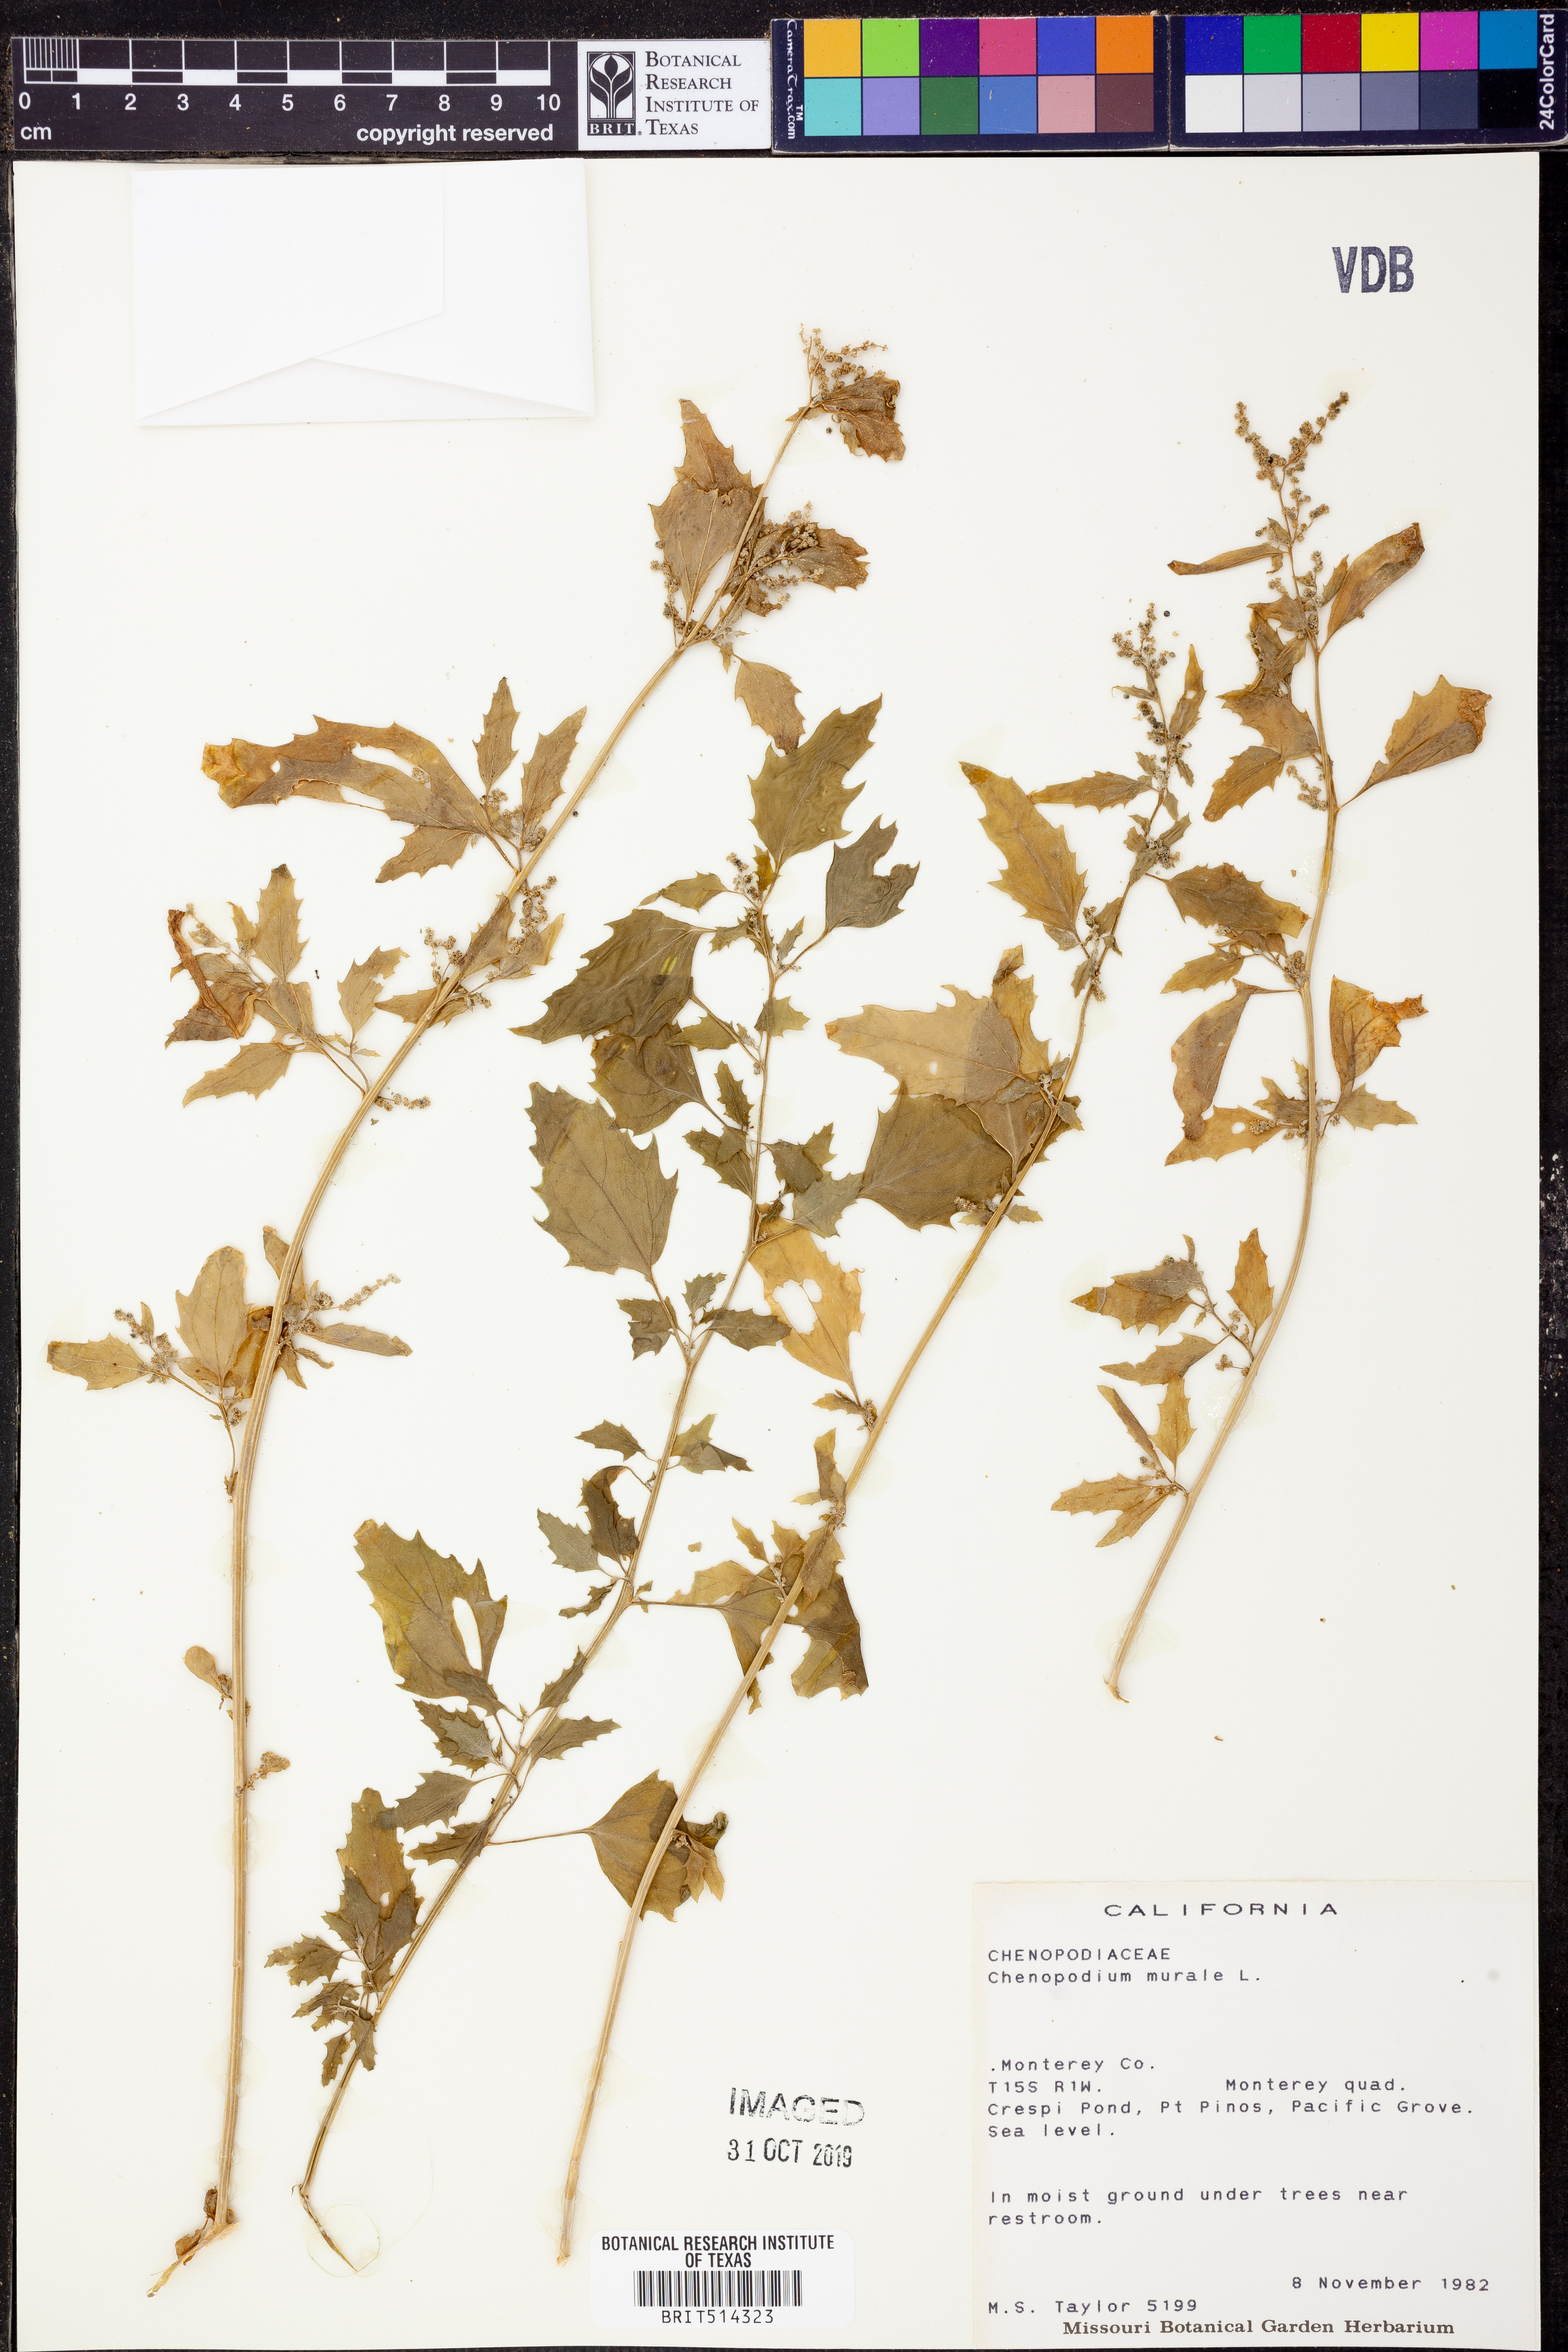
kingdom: Plantae
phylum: Tracheophyta
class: Magnoliopsida
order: Caryophyllales
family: Amaranthaceae
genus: Chenopodiastrum
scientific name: Chenopodiastrum murale
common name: Sowbane
